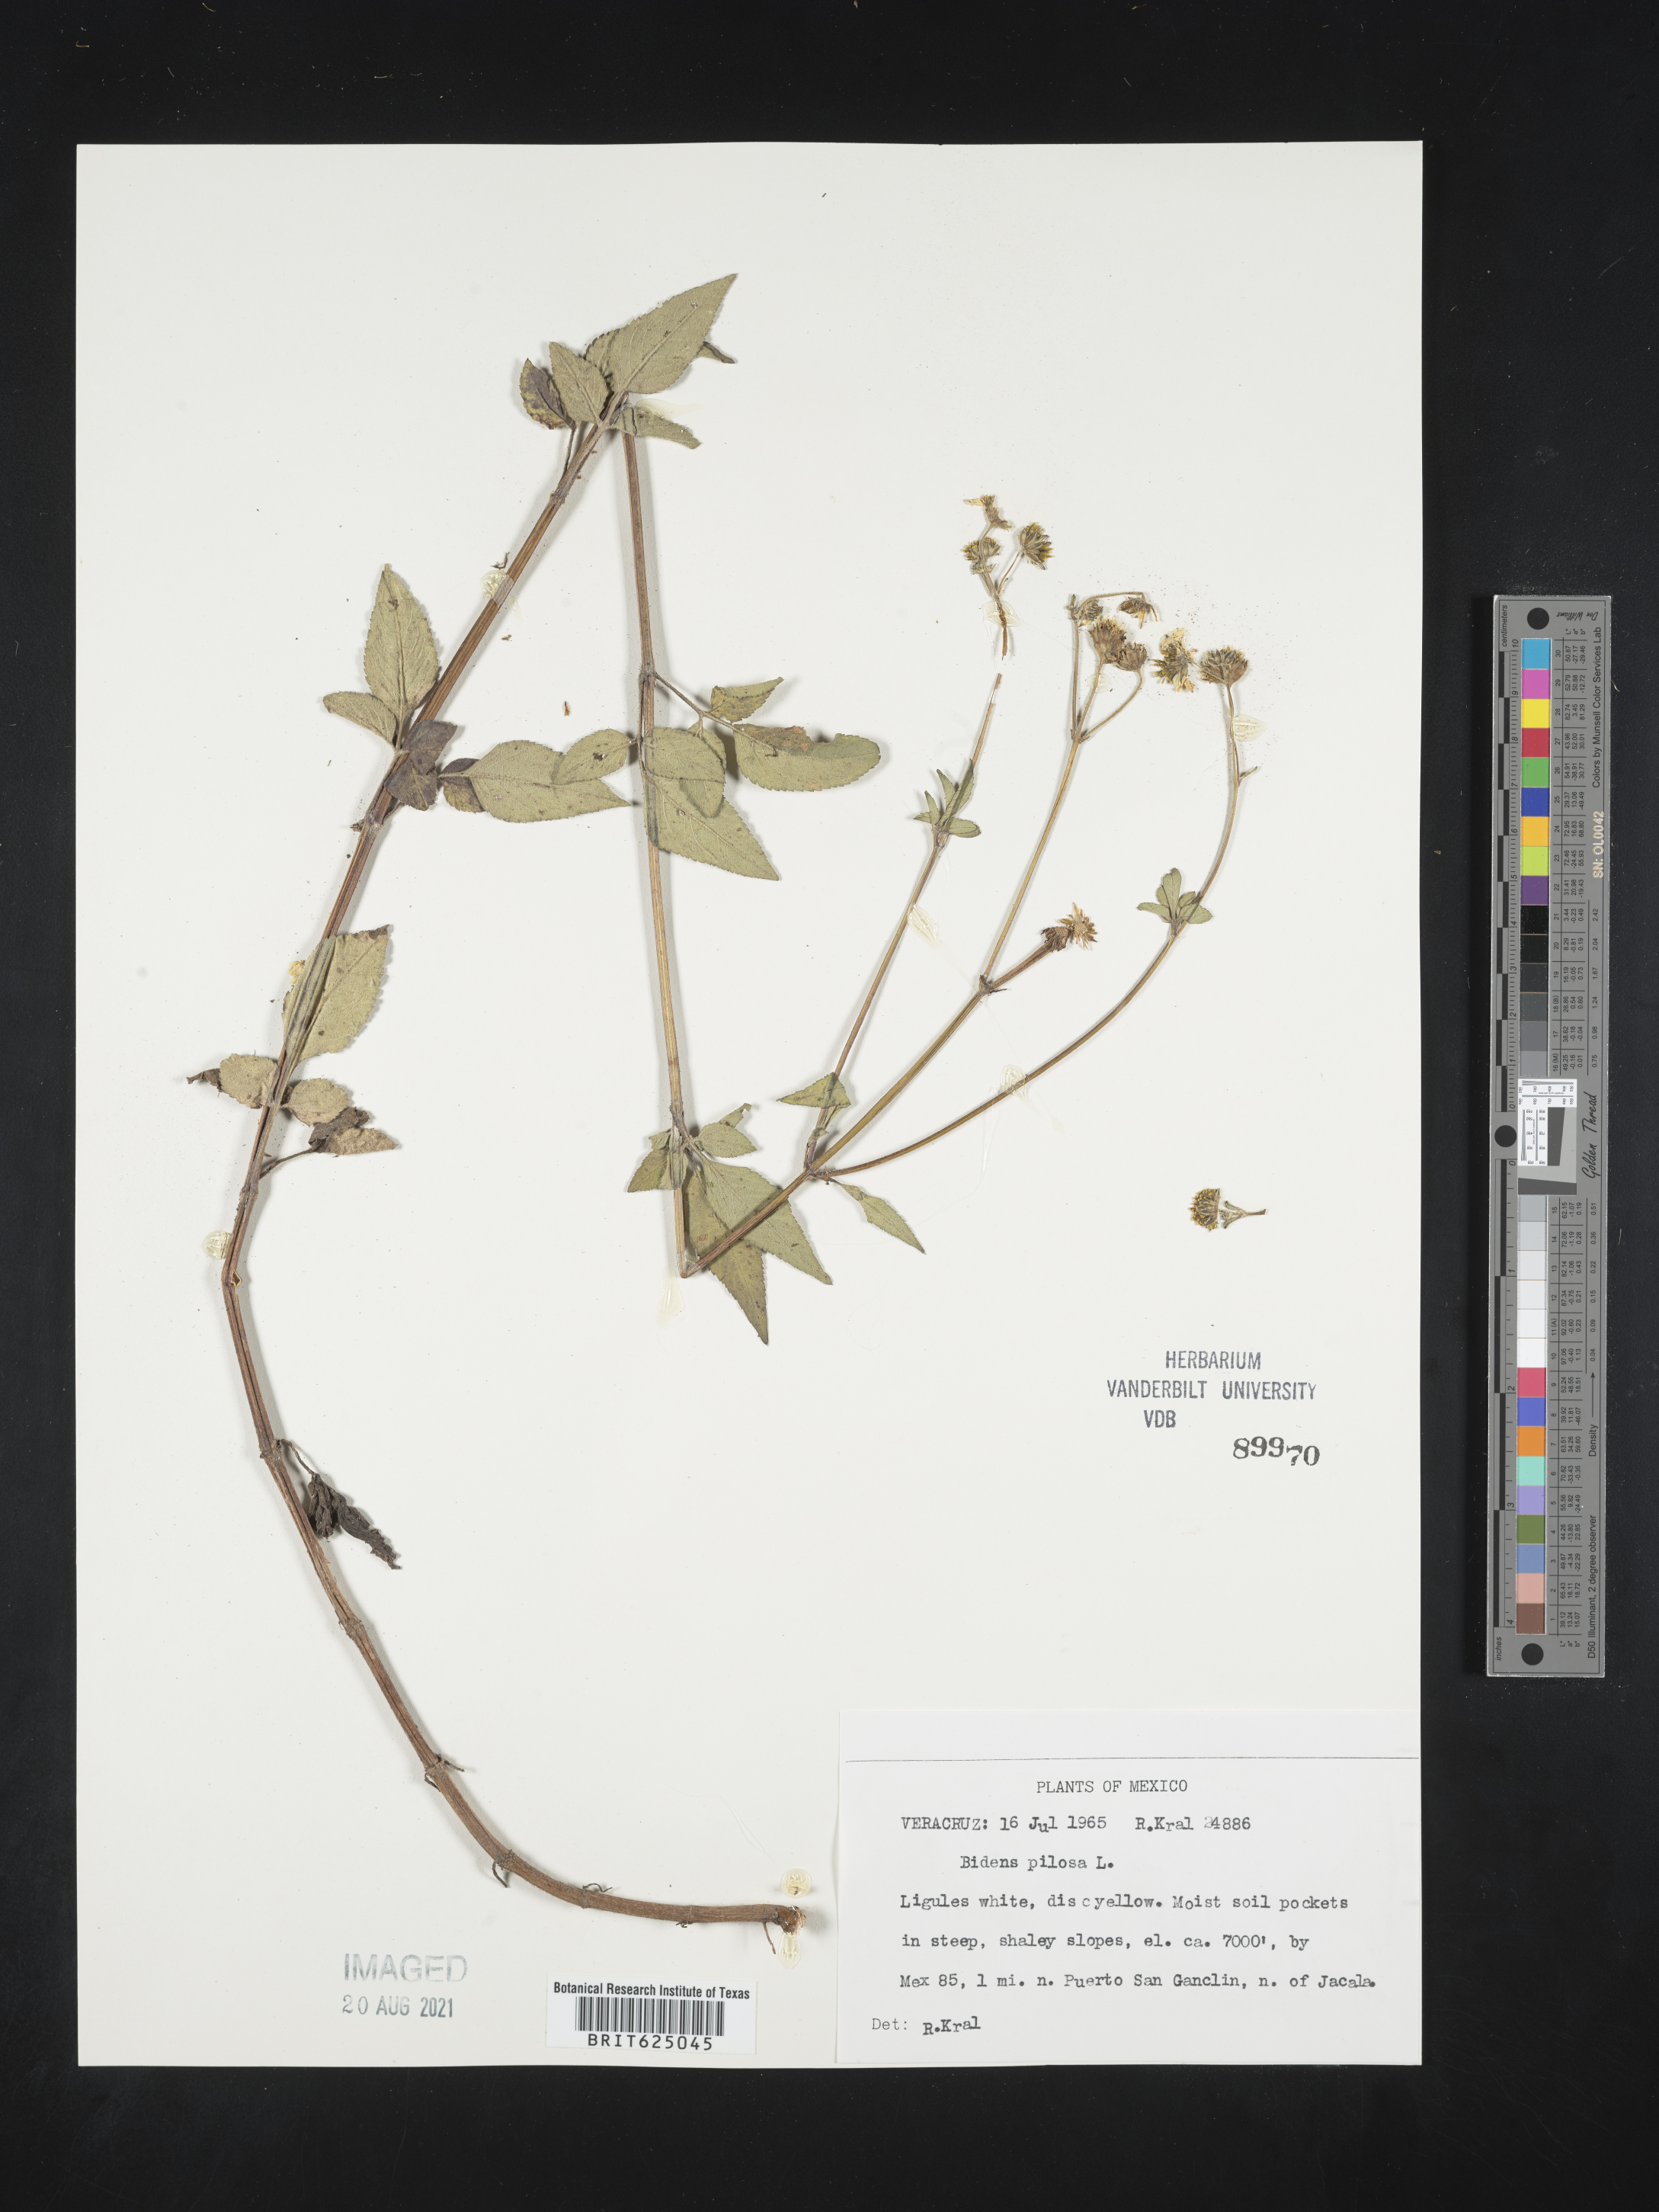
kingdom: Plantae
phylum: Tracheophyta
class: Magnoliopsida
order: Asterales
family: Asteraceae
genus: Bidens
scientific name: Bidens
